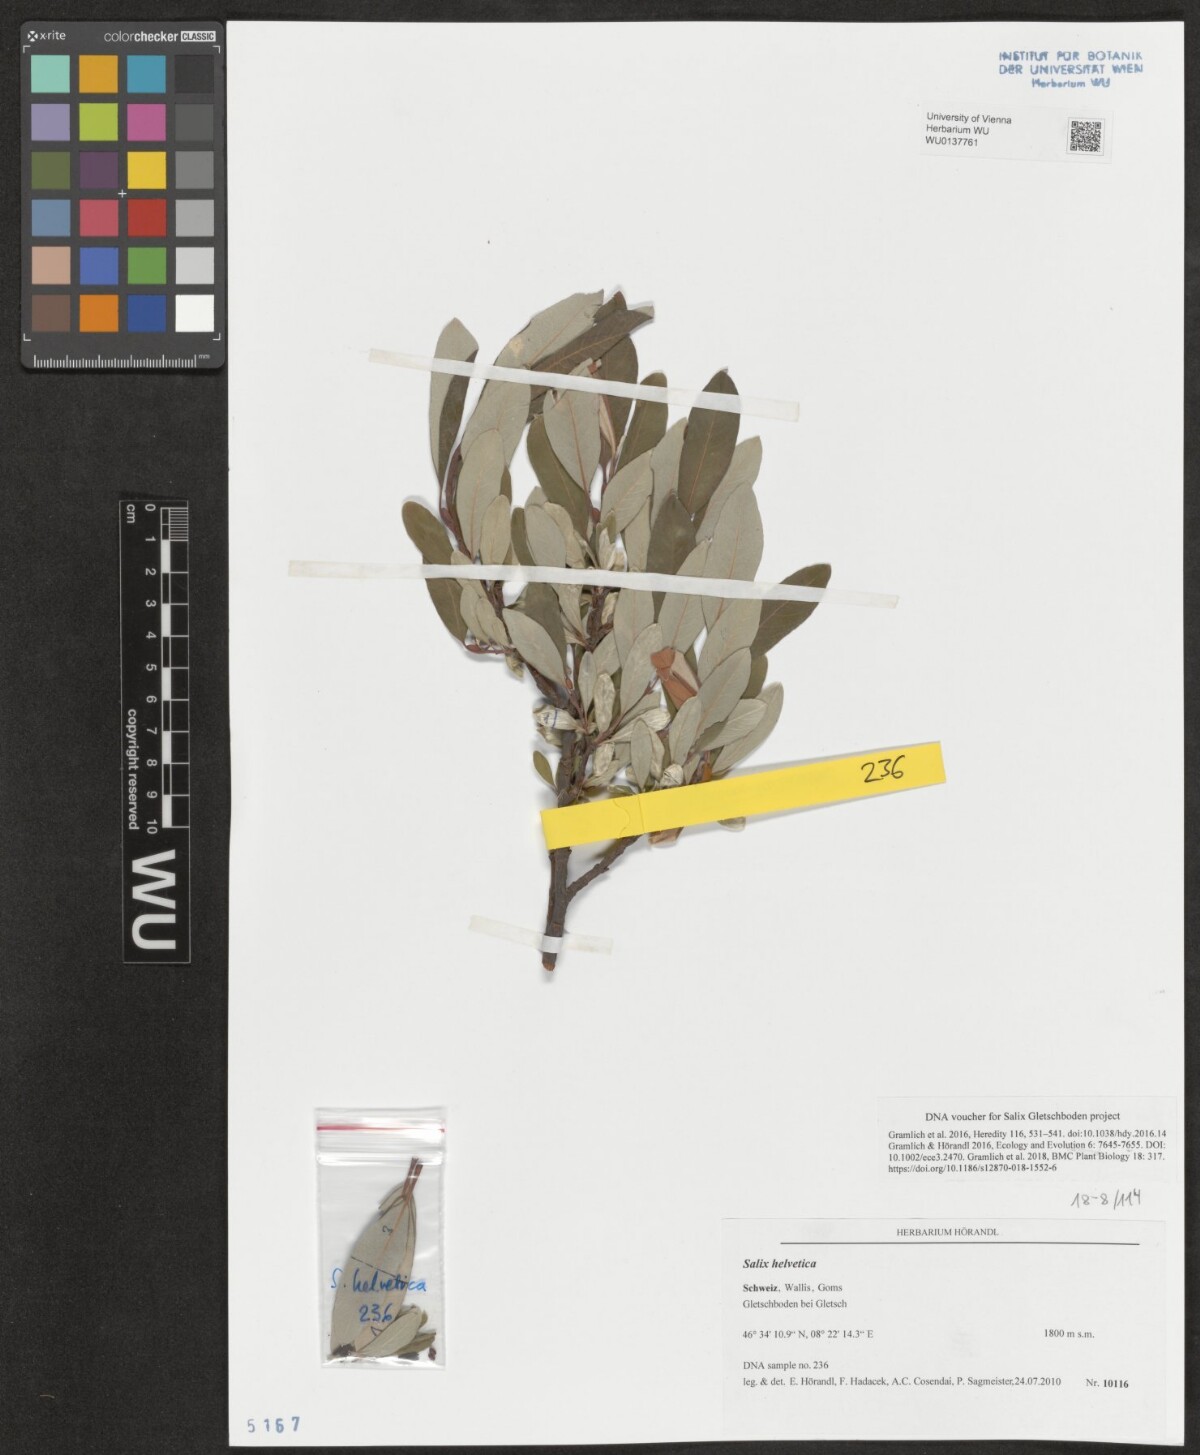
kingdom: Plantae
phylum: Tracheophyta
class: Magnoliopsida
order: Malpighiales
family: Salicaceae
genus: Salix
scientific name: Salix helvetica
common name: Swiss willow
